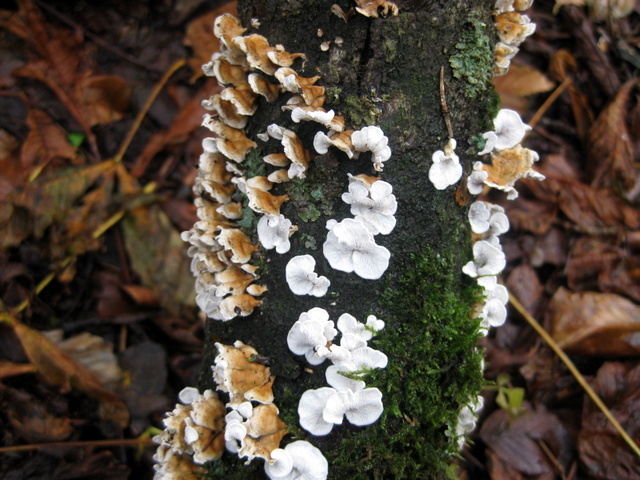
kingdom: Fungi
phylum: Basidiomycota
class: Agaricomycetes
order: Amylocorticiales
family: Amylocorticiaceae
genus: Plicaturopsis
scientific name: Plicaturopsis crispa
